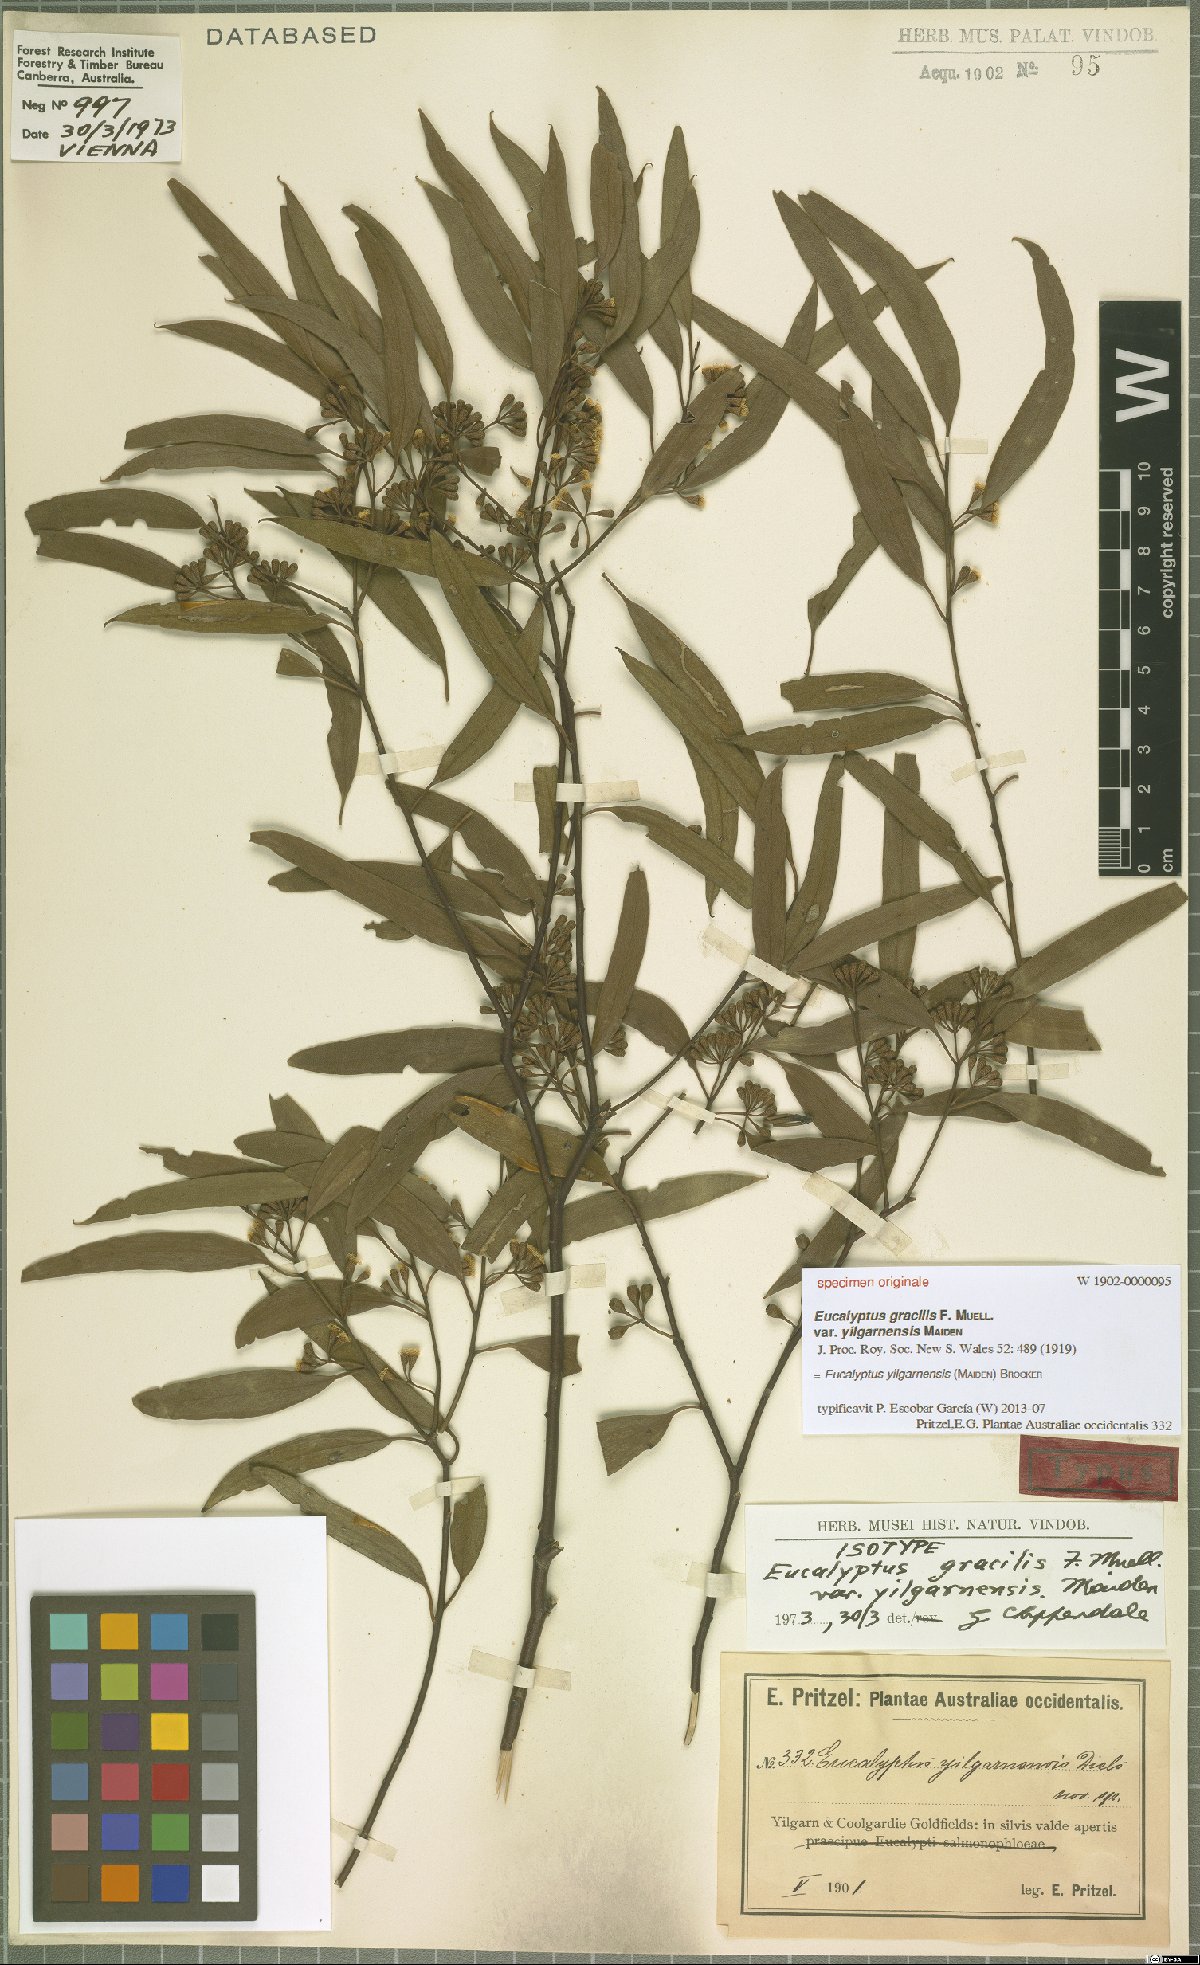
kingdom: Plantae
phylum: Tracheophyta
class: Magnoliopsida
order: Myrtales
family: Myrtaceae
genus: Eucalyptus
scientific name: Eucalyptus yilgarnensis
